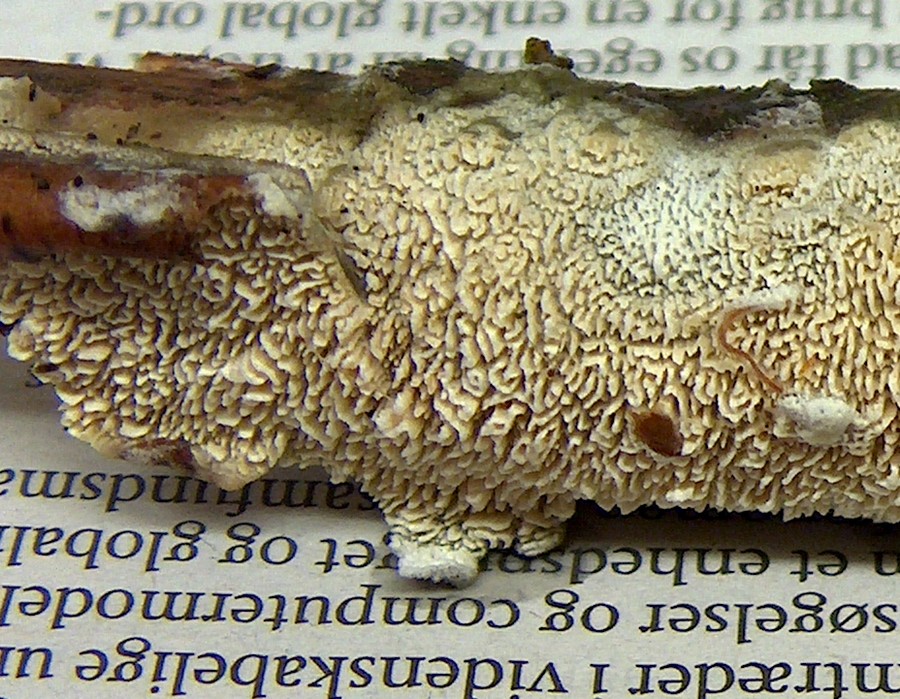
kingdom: Fungi
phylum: Basidiomycota
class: Agaricomycetes
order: Hymenochaetales
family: Schizoporaceae
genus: Schizopora
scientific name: Schizopora paradoxa
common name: hvid tandsvamp
